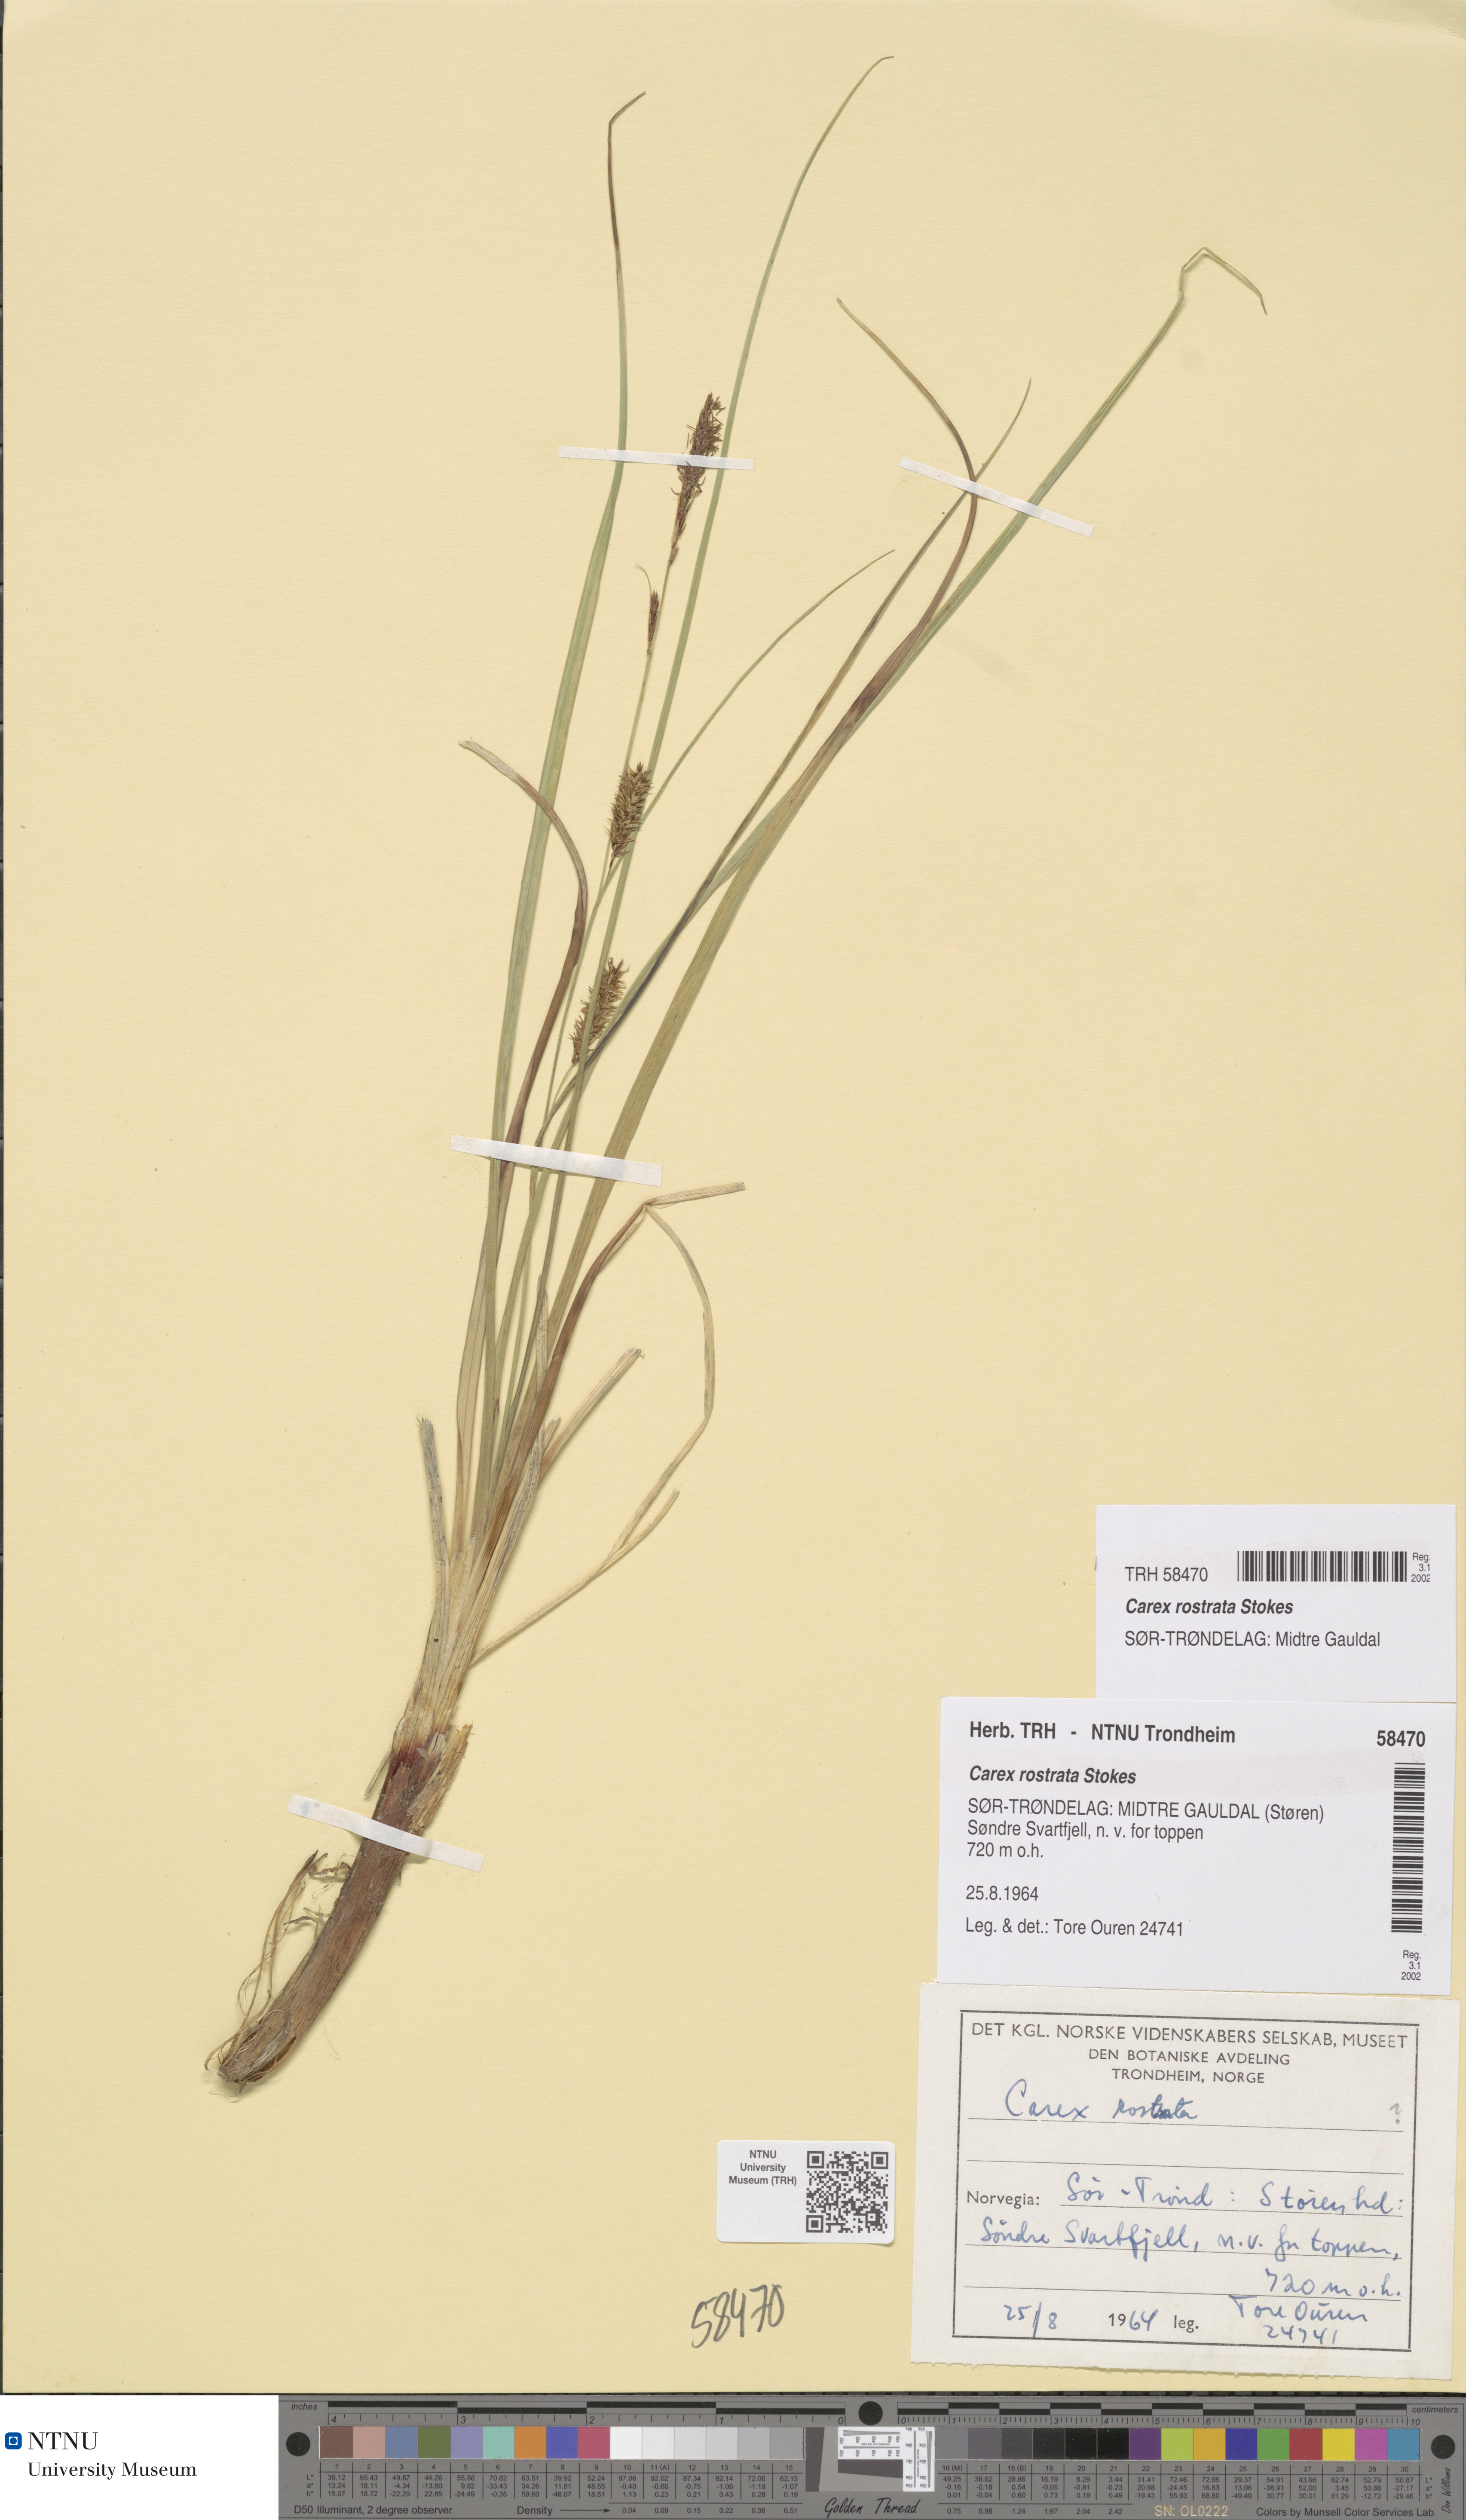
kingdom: Plantae
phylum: Tracheophyta
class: Liliopsida
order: Poales
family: Cyperaceae
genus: Carex
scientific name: Carex rostrata
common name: Bottle sedge
